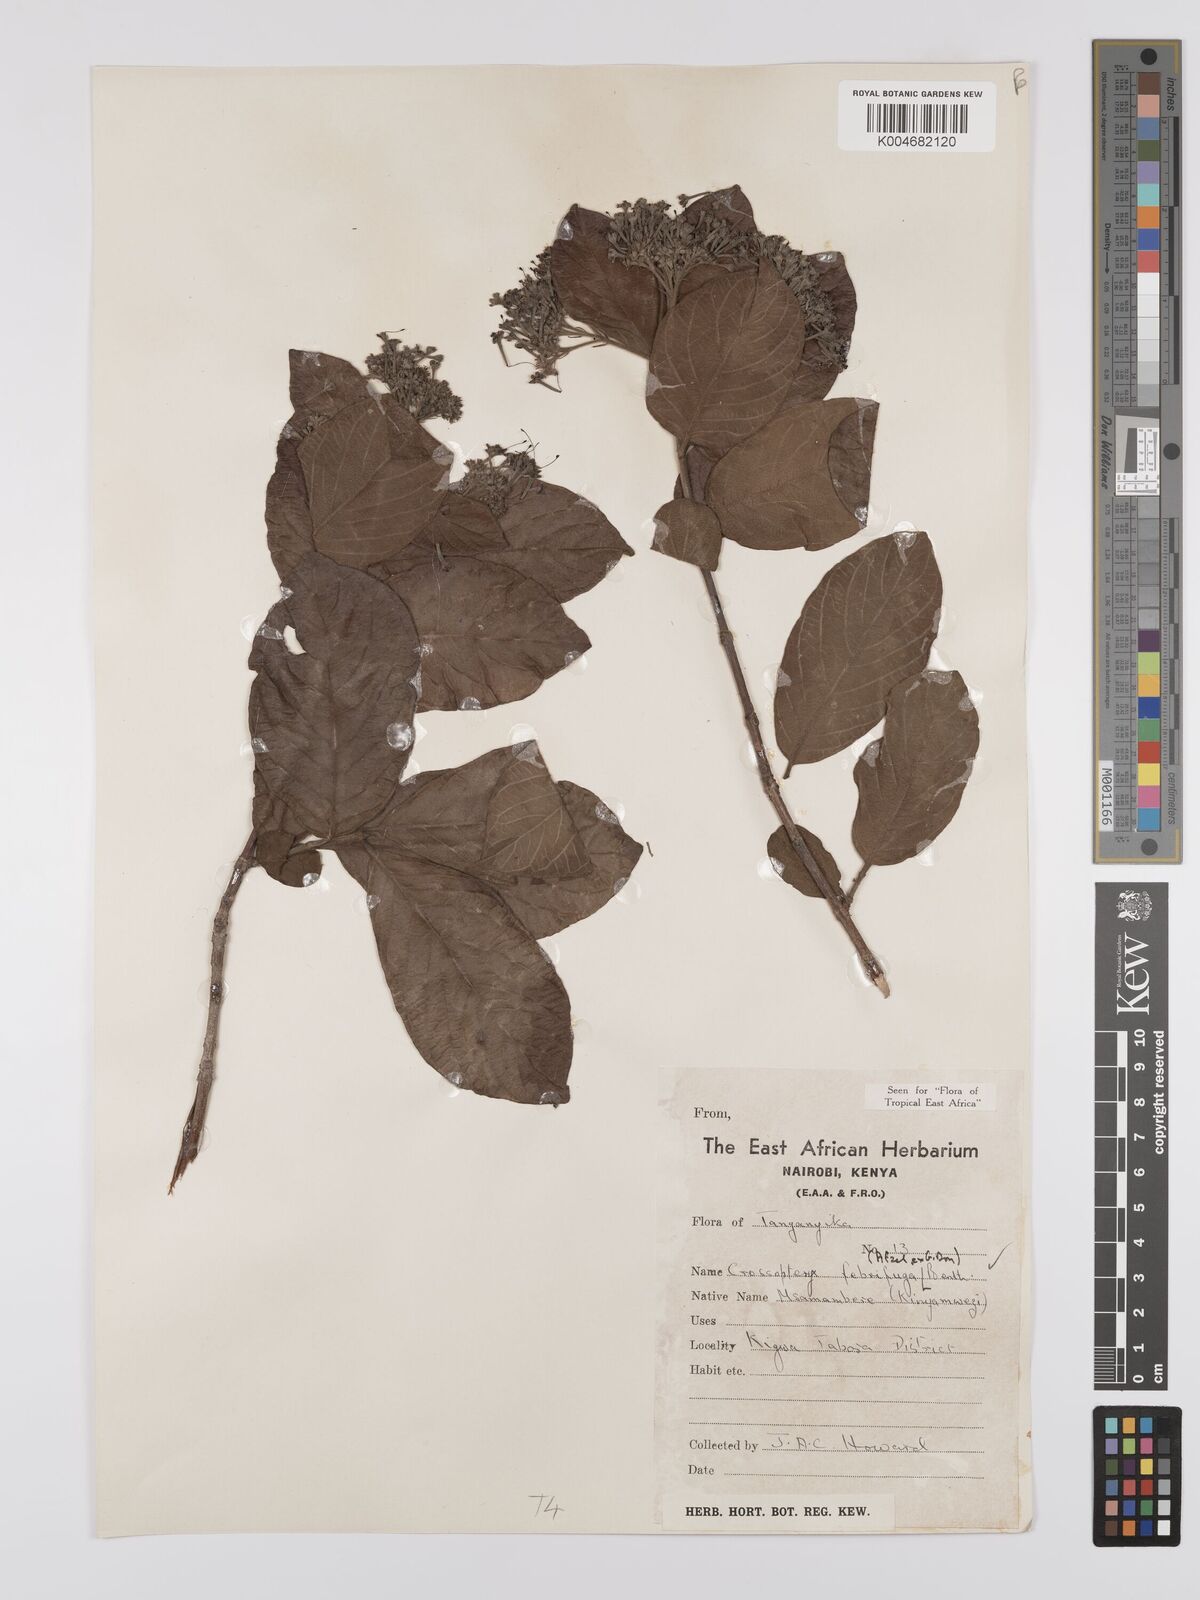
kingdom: Plantae
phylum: Tracheophyta
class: Magnoliopsida
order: Gentianales
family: Rubiaceae
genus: Crossopteryx
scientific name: Crossopteryx febrifuga
